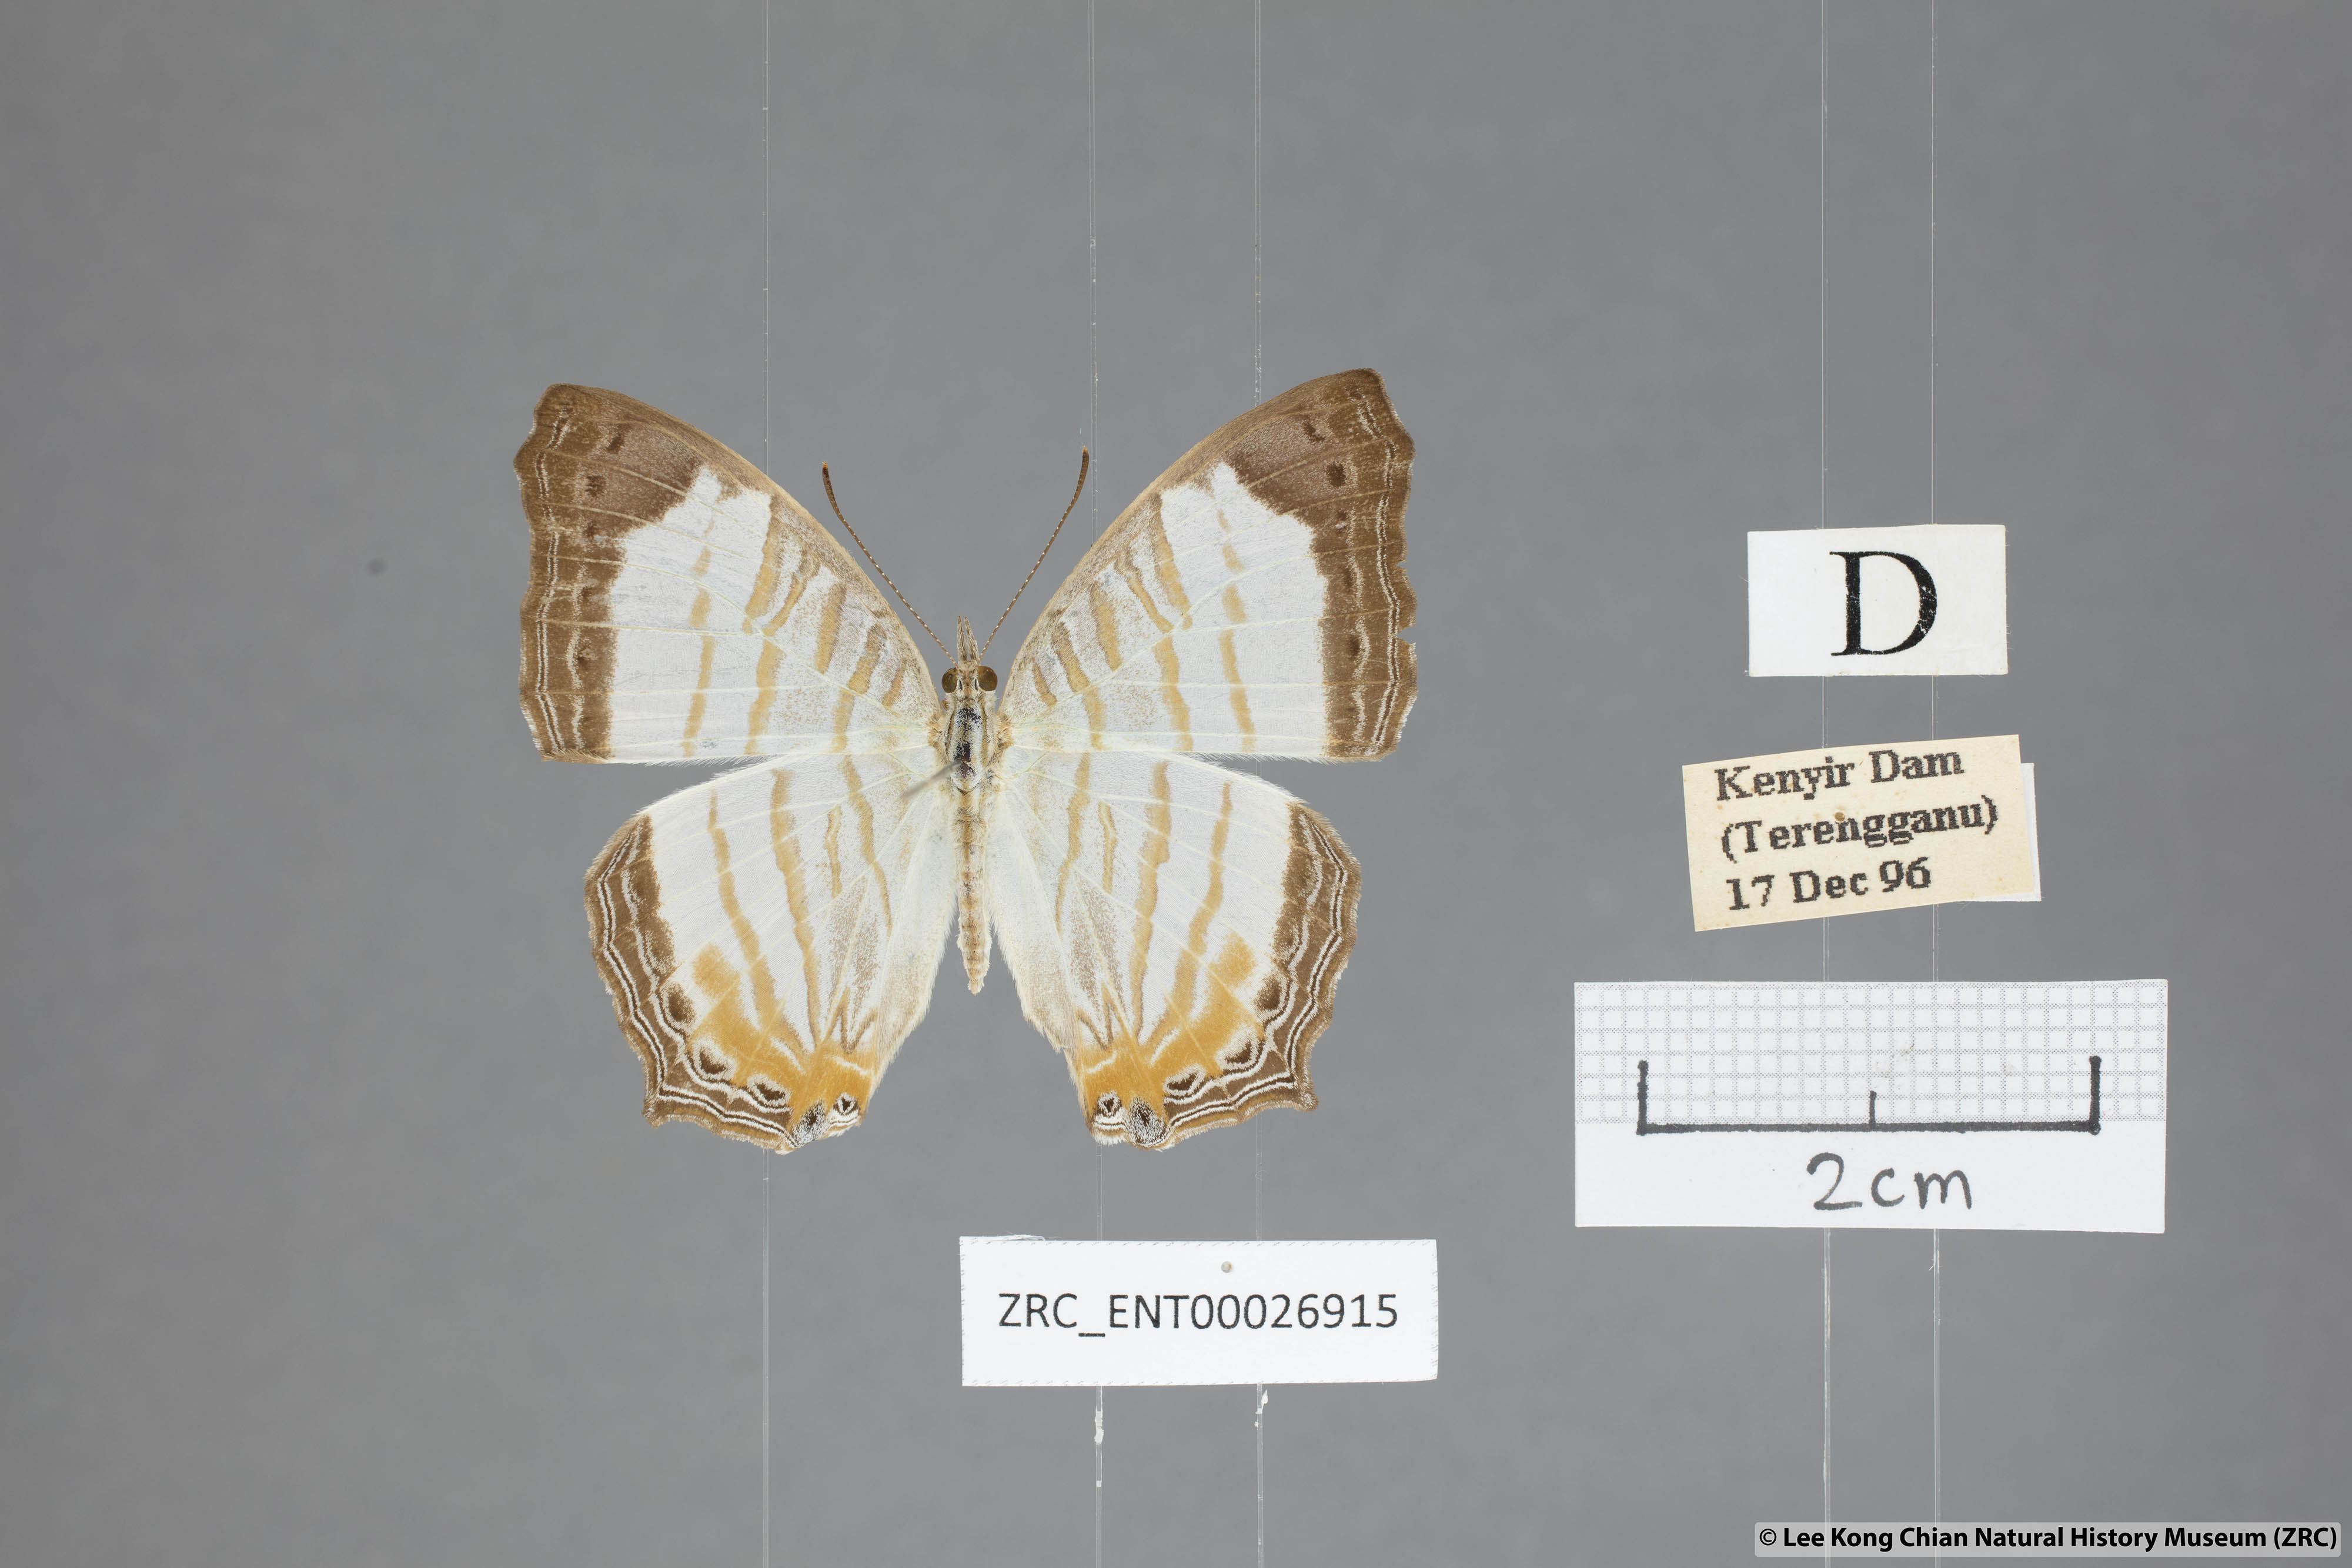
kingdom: Animalia
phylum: Arthropoda
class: Insecta
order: Lepidoptera
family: Nymphalidae
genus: Cyrestis
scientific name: Cyrestis themire
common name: Little mapwing
